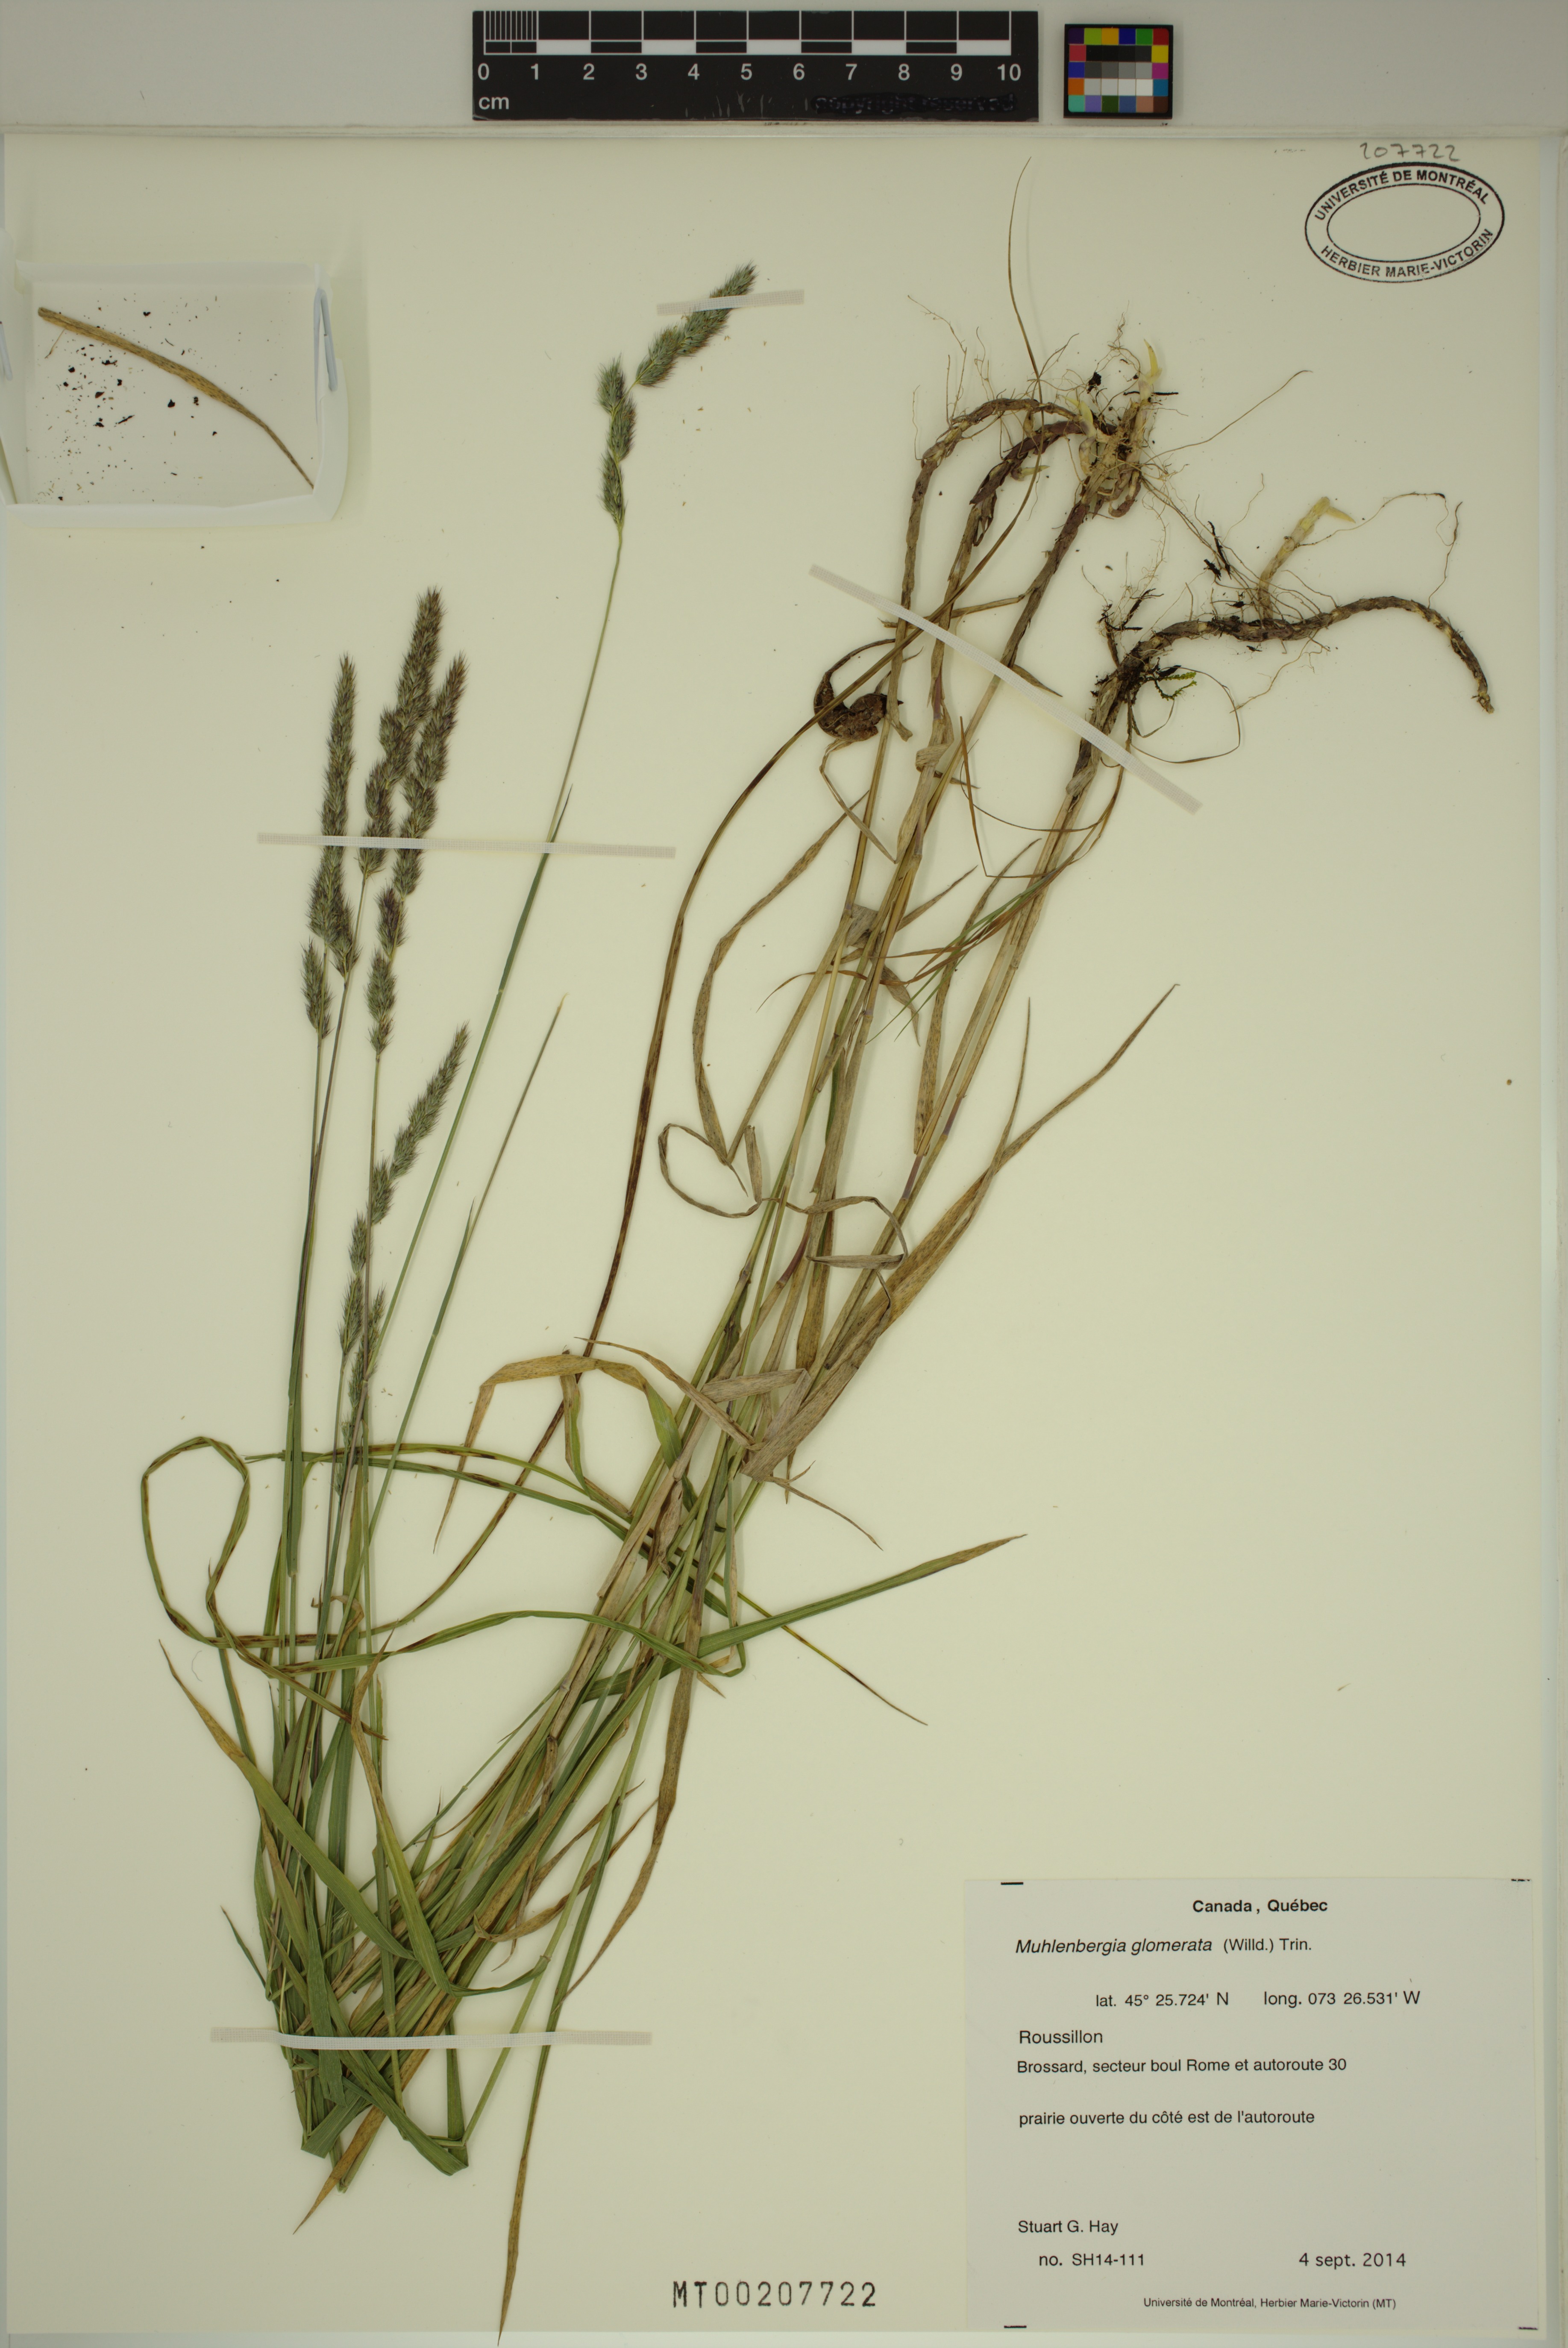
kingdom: Plantae
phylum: Tracheophyta
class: Liliopsida
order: Poales
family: Poaceae
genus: Muhlenbergia
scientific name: Muhlenbergia glomerata
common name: Bog muhly
